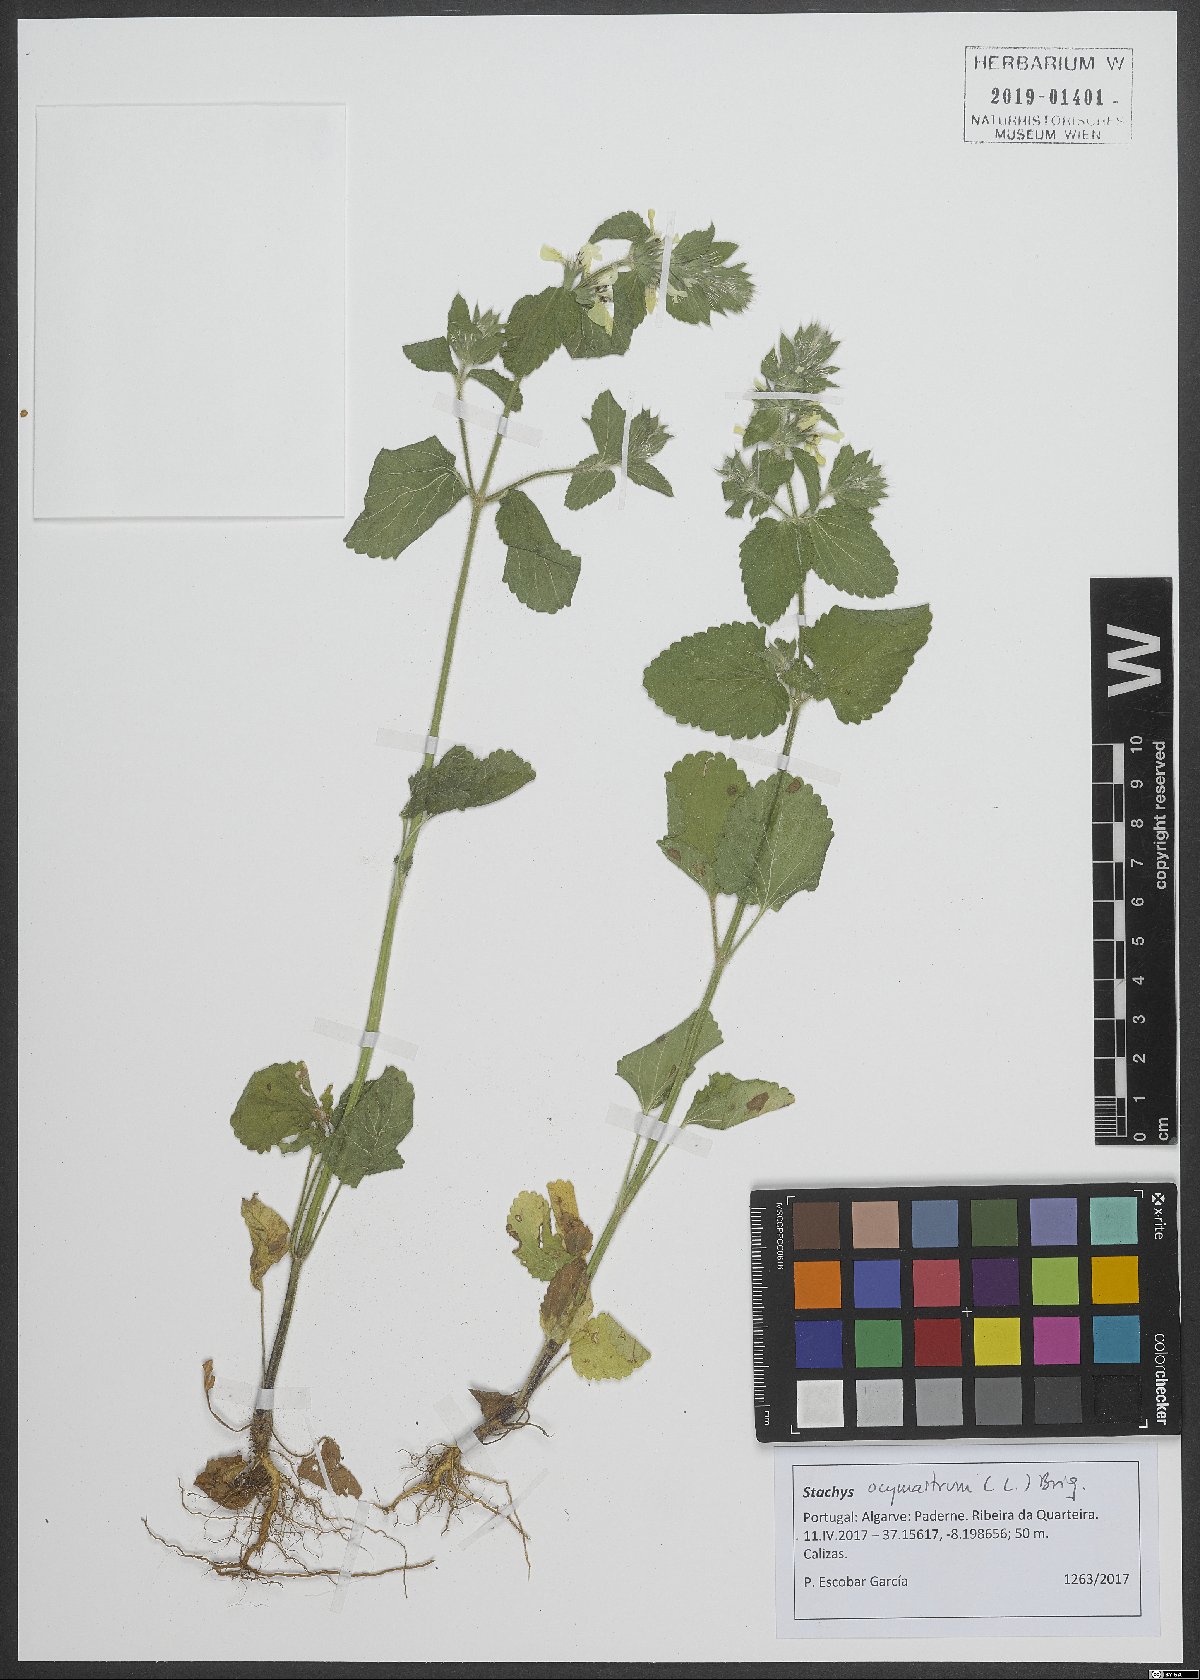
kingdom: Plantae
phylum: Tracheophyta
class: Magnoliopsida
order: Lamiales
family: Lamiaceae
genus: Stachys
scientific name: Stachys ocymastrum
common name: Italian hedgenettle
